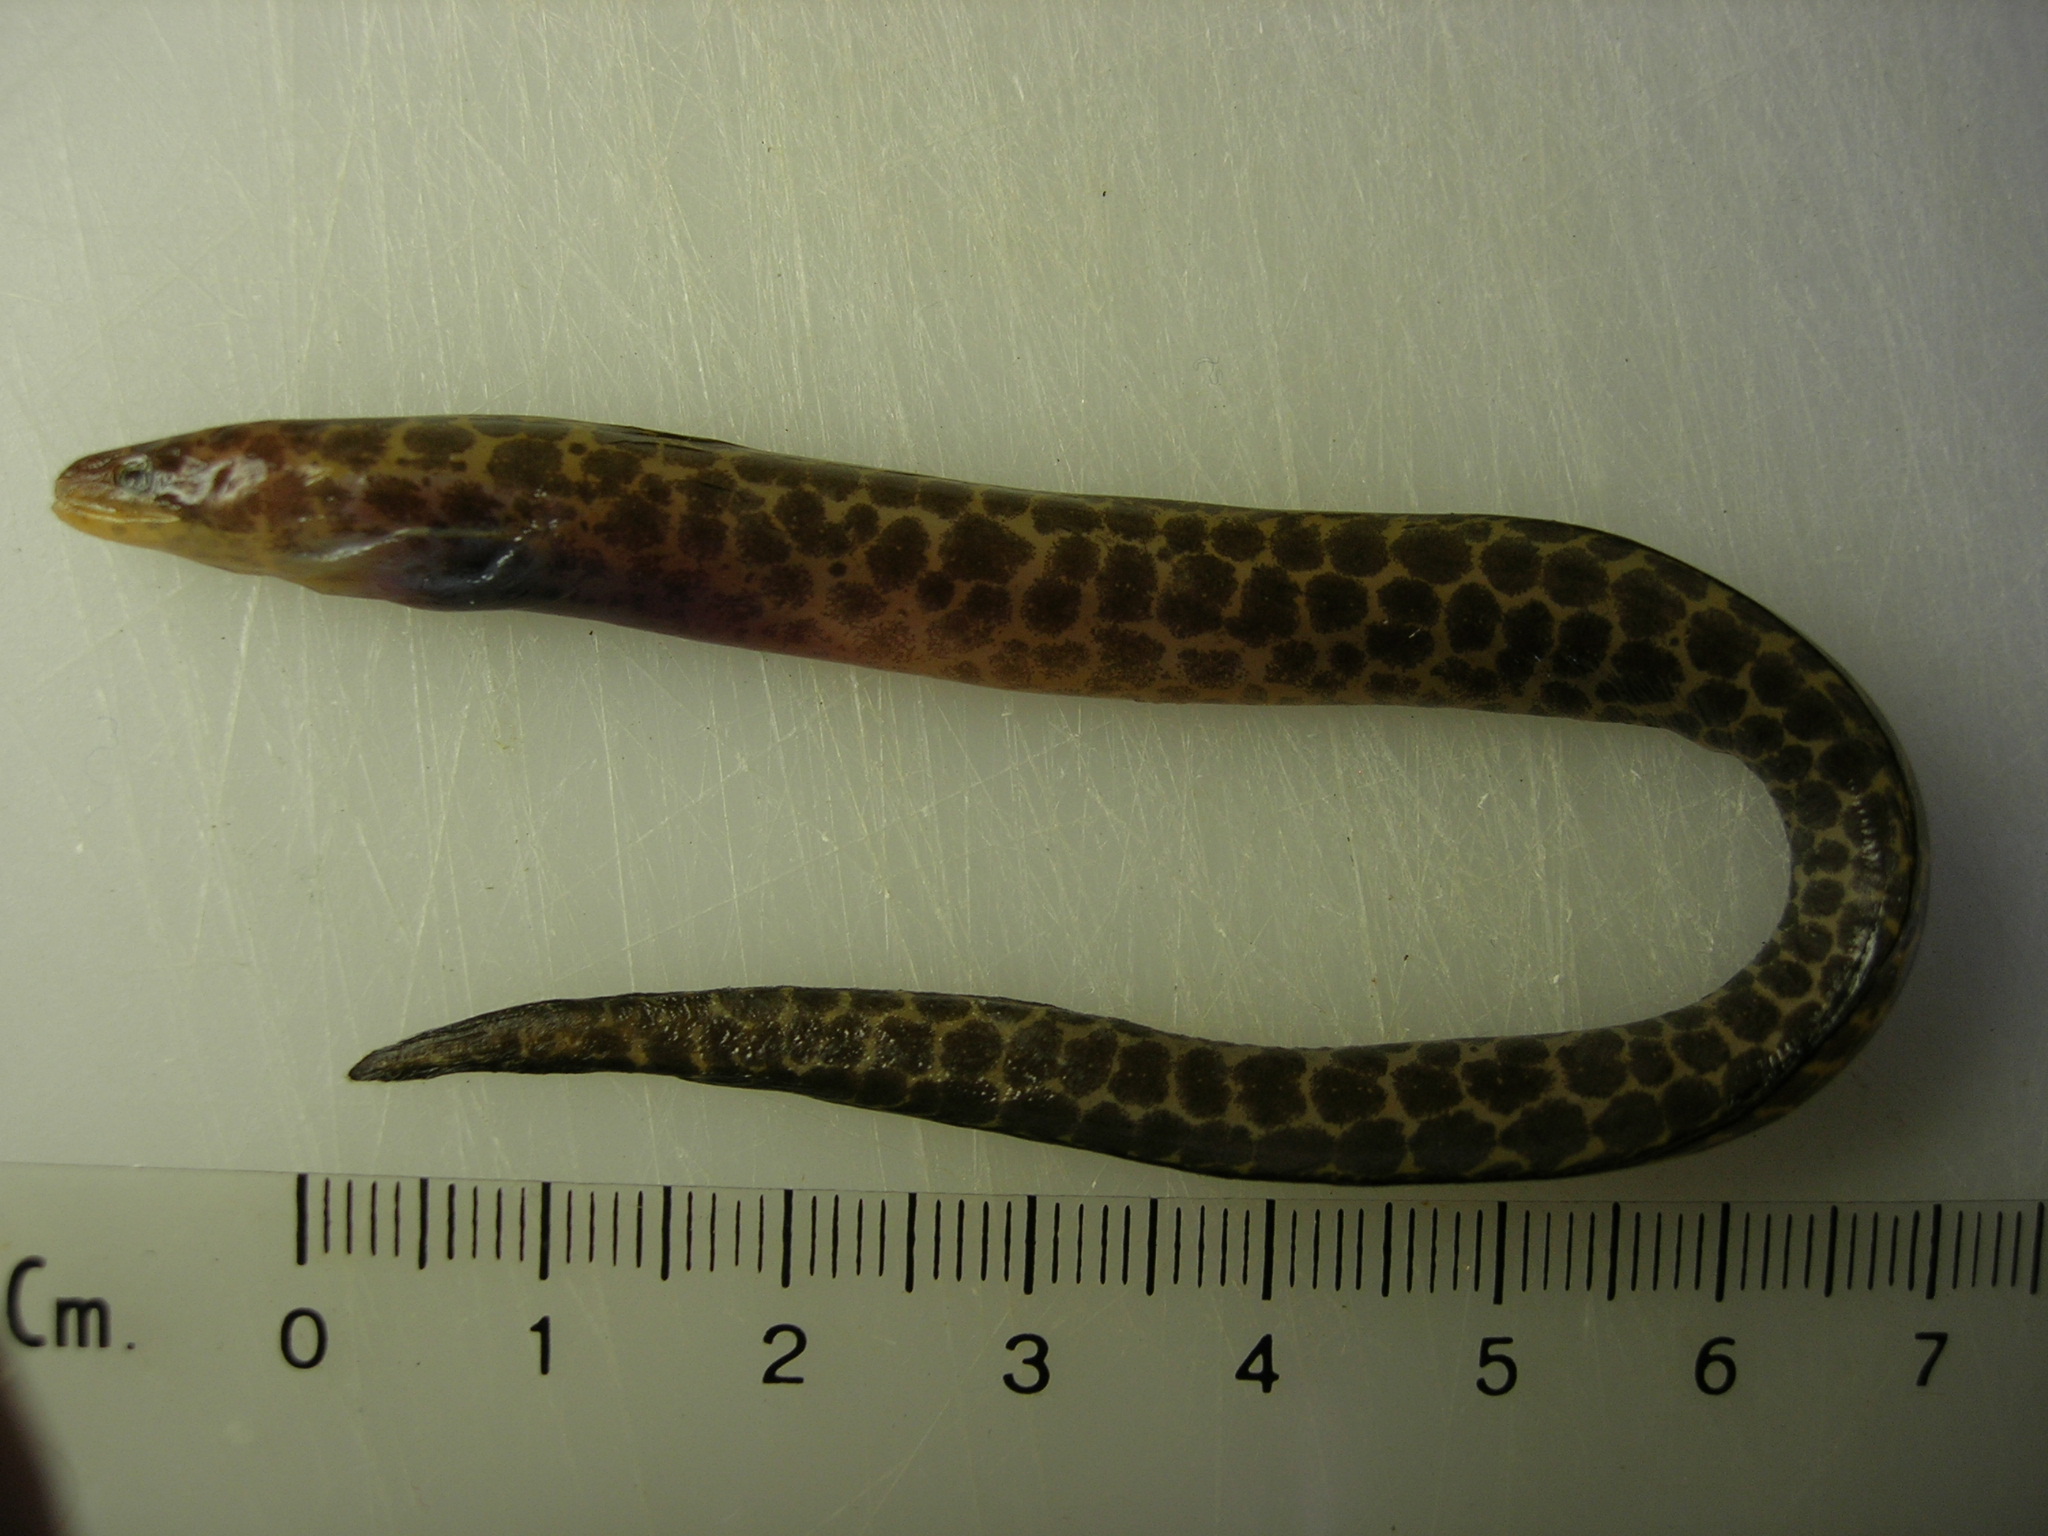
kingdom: Animalia
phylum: Chordata
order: Anguilliformes
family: Muraenidae
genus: Gymnothorax
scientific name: Gymnothorax favagineus
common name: Honeycomb moray
